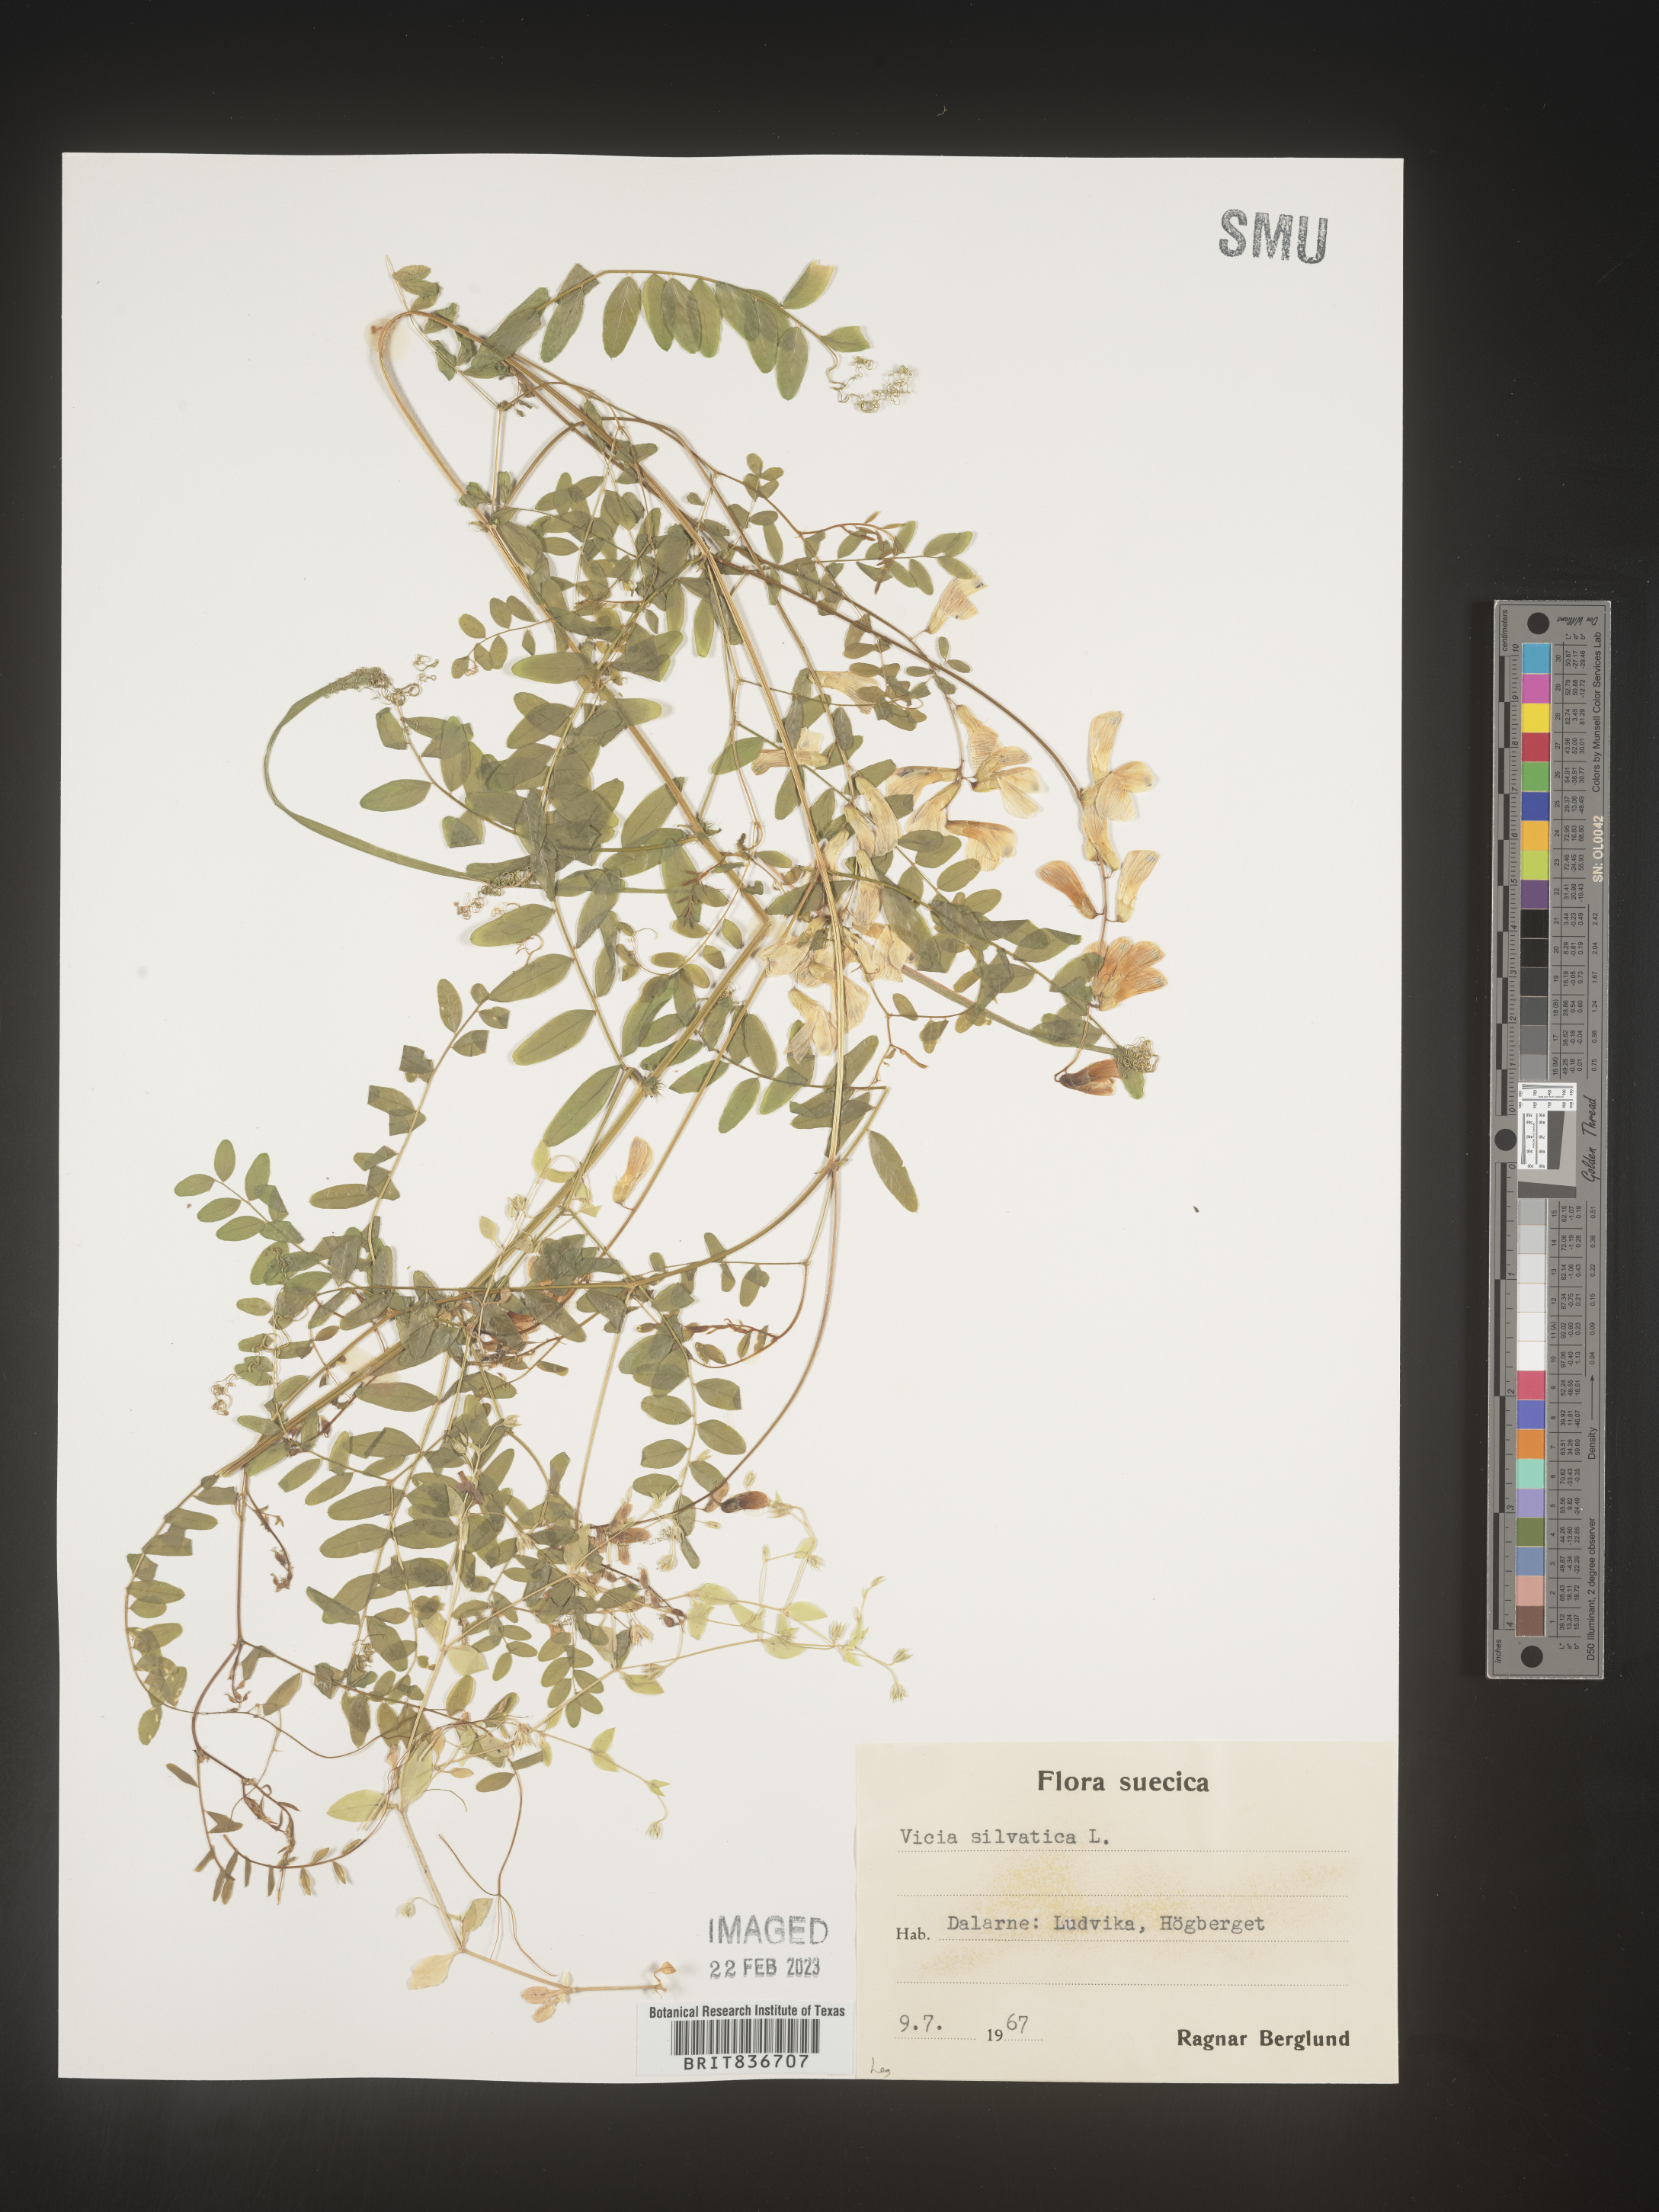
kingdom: Plantae
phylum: Tracheophyta
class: Magnoliopsida
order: Fabales
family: Fabaceae
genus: Vicia
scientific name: Vicia sylvatica
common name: Wood vetch
